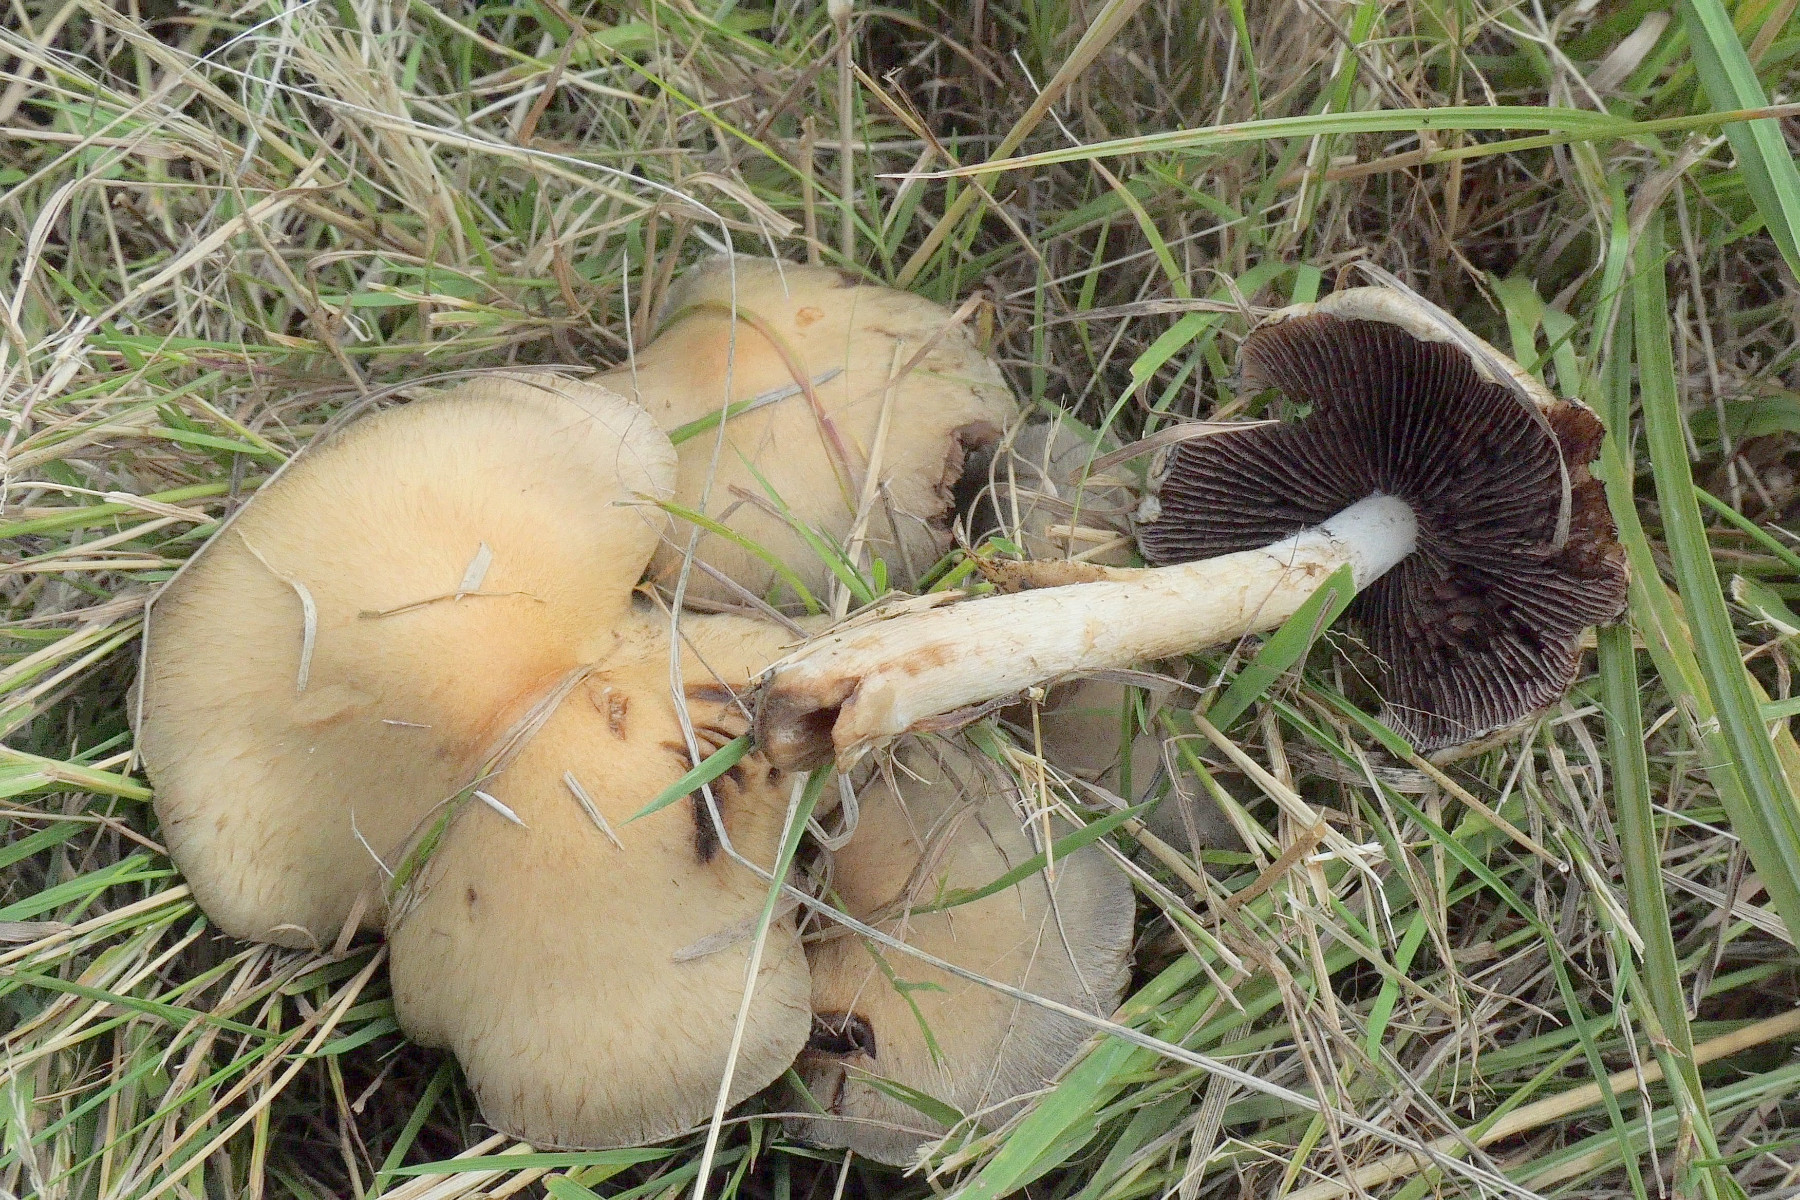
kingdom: Fungi
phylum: Basidiomycota
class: Agaricomycetes
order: Agaricales
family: Psathyrellaceae
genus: Lacrymaria
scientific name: Lacrymaria lacrymabunda
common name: grædende mørkhat
